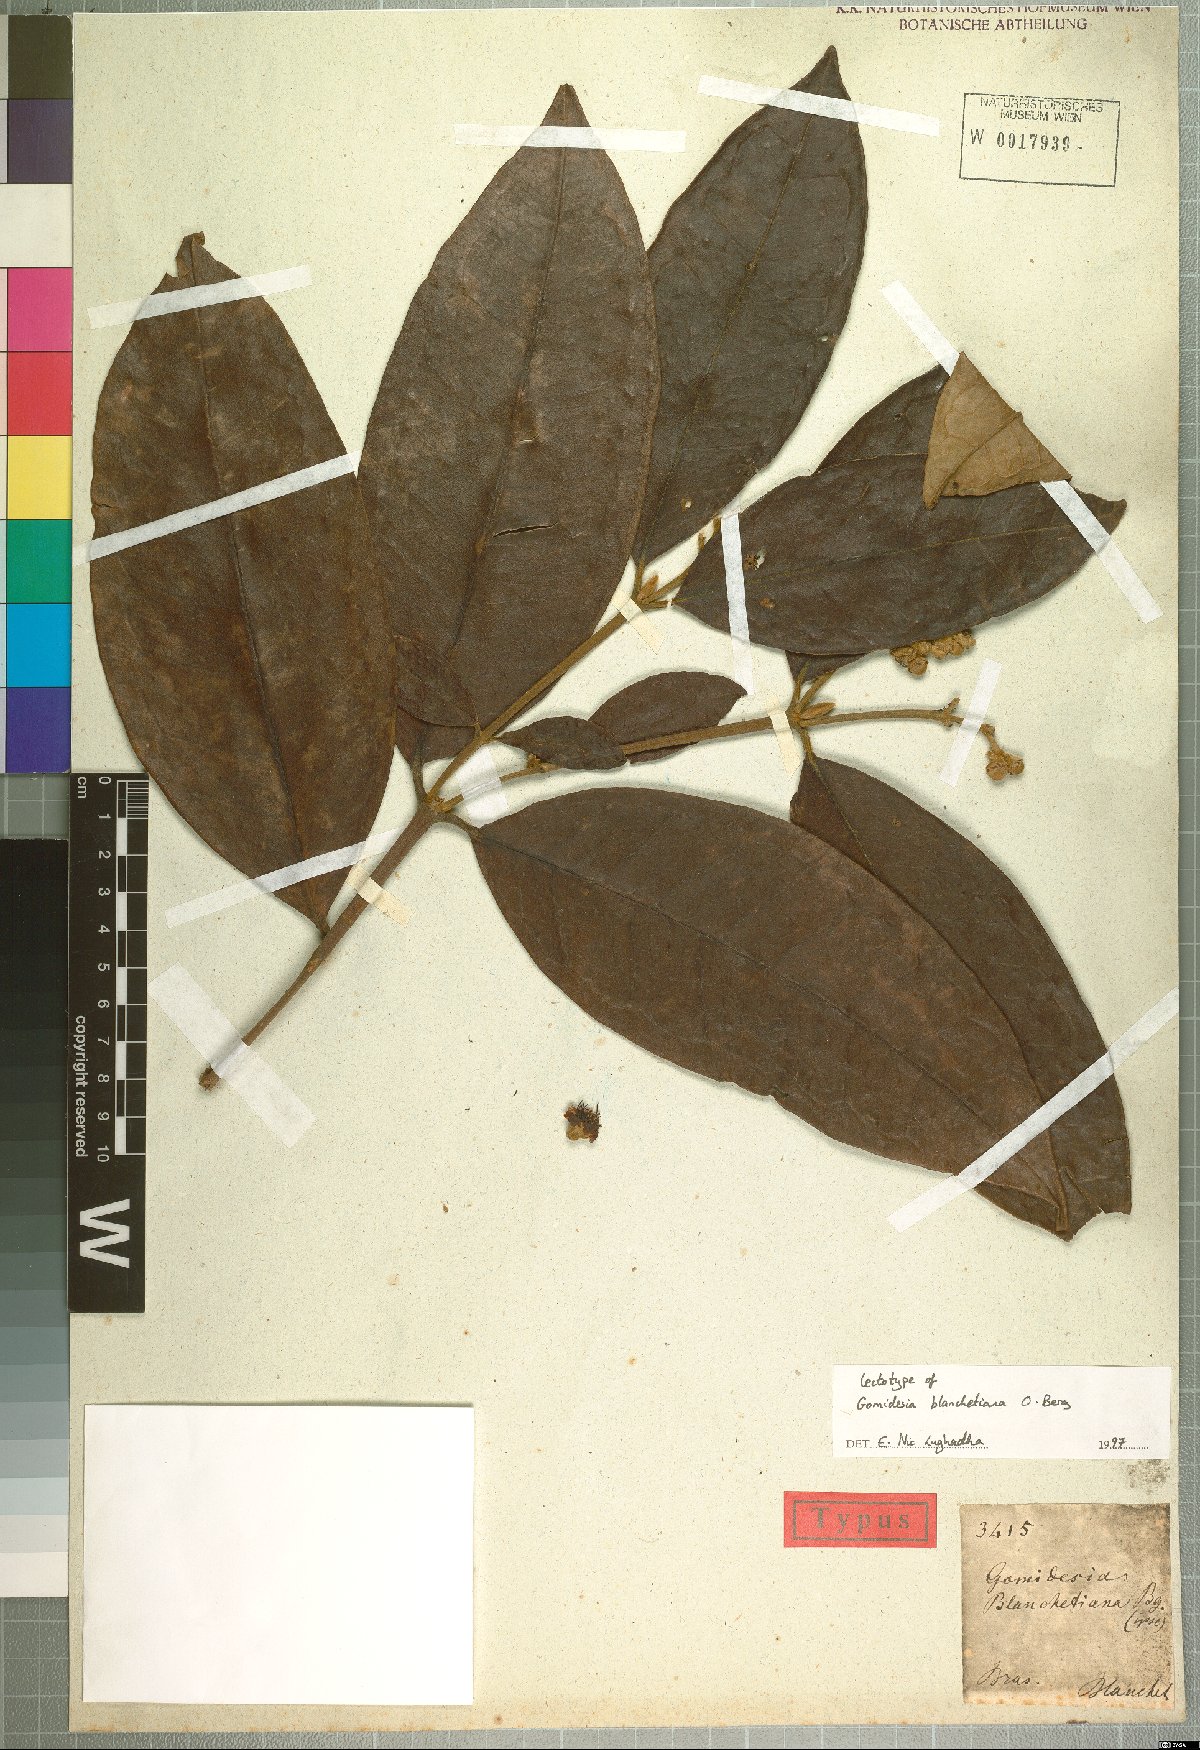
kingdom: Plantae
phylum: Tracheophyta
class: Magnoliopsida
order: Myrtales
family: Myrtaceae
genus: Myrcia
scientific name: Myrcia neoblanchetiana
